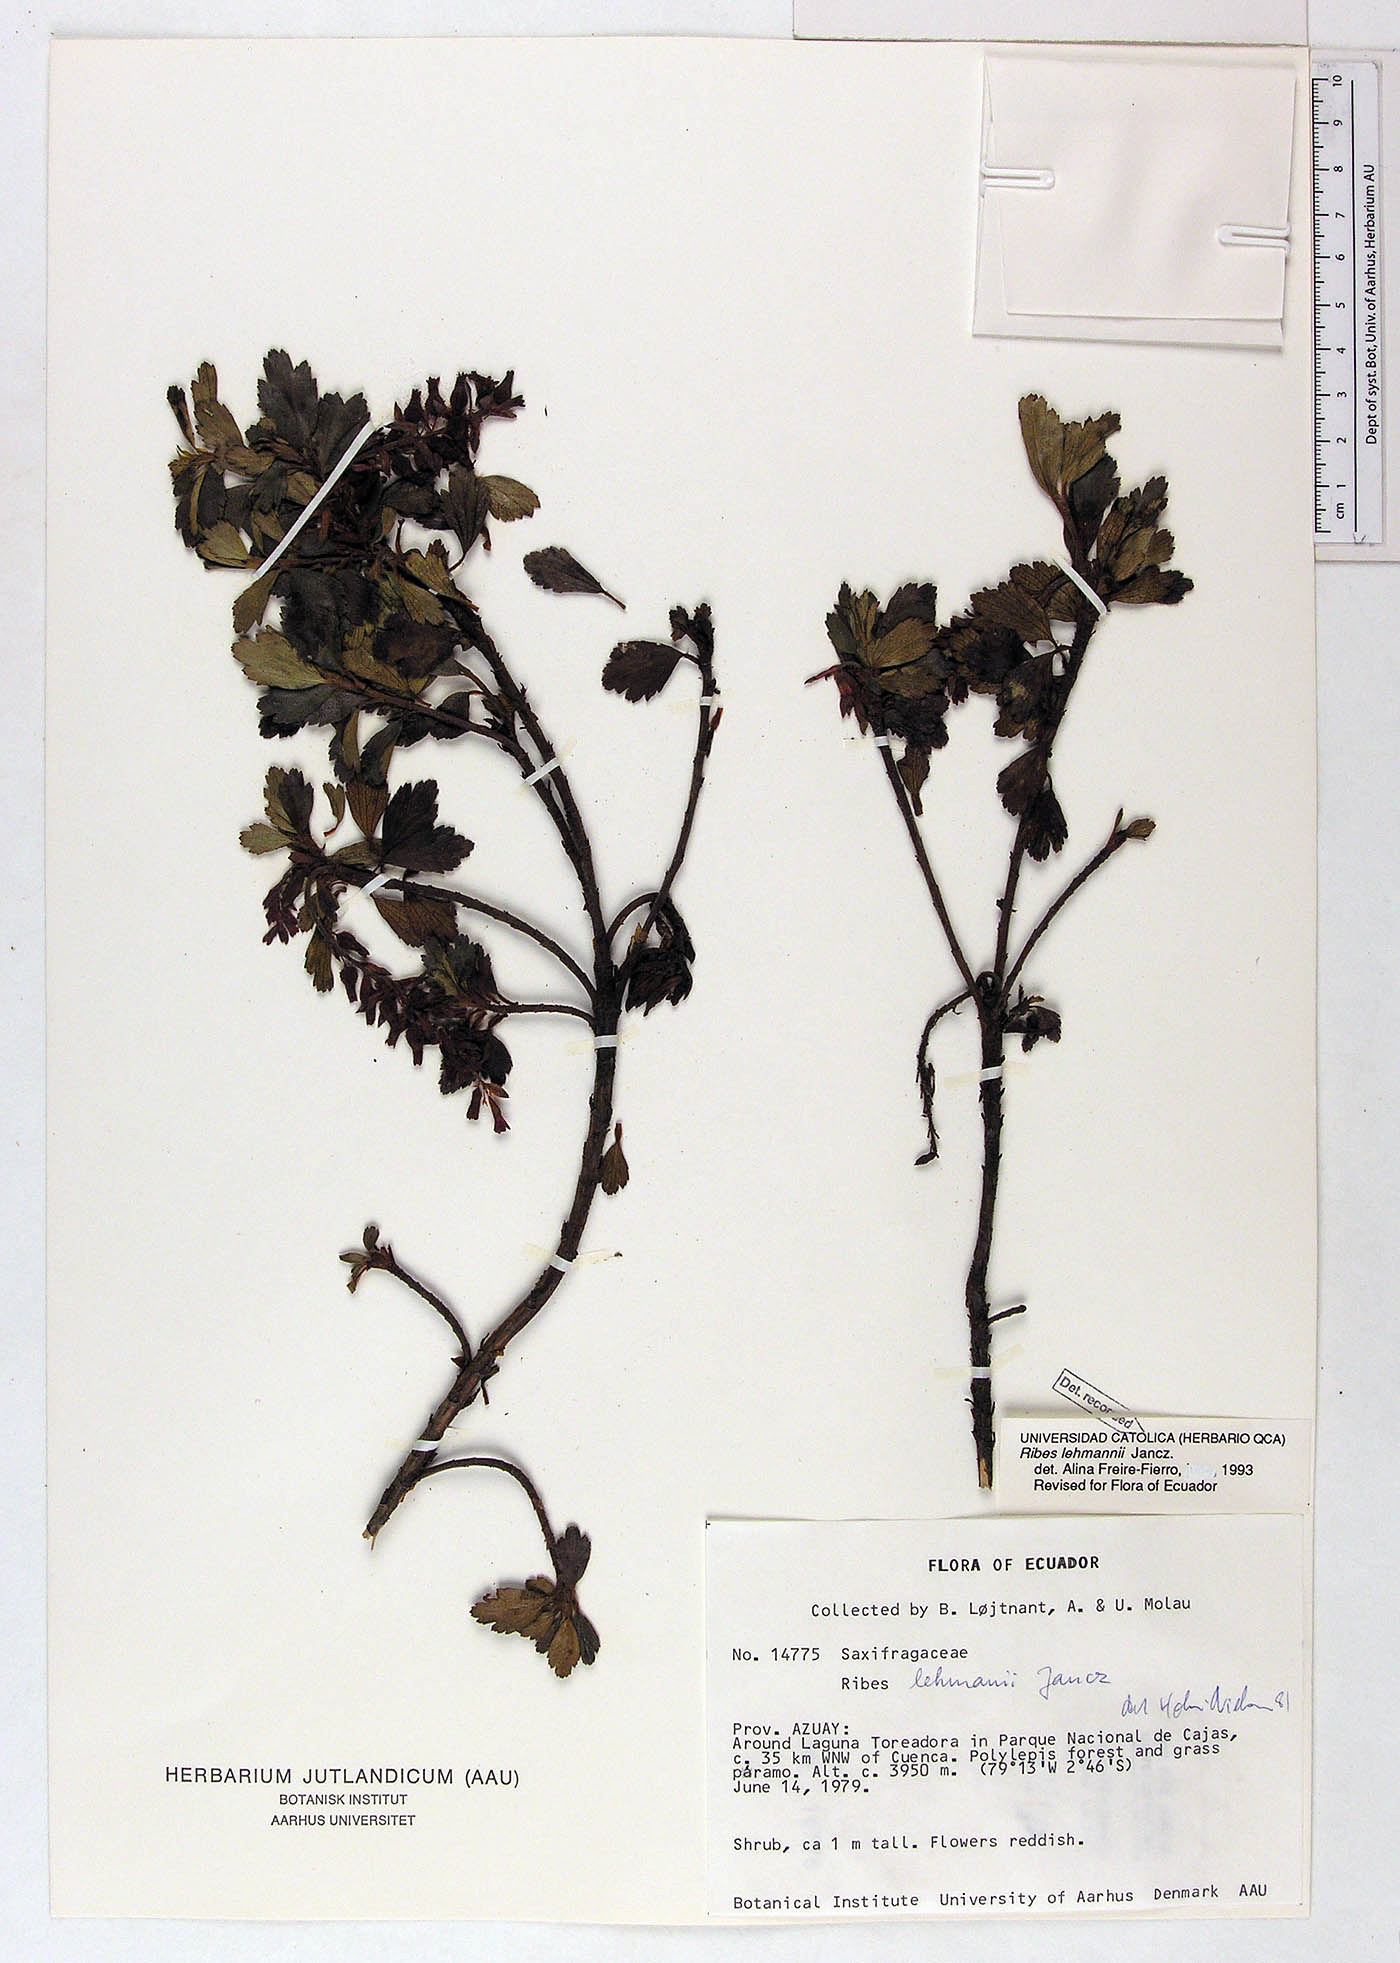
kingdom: Plantae
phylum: Tracheophyta
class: Magnoliopsida
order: Saxifragales
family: Grossulariaceae
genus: Ribes
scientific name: Ribes lehmannii
